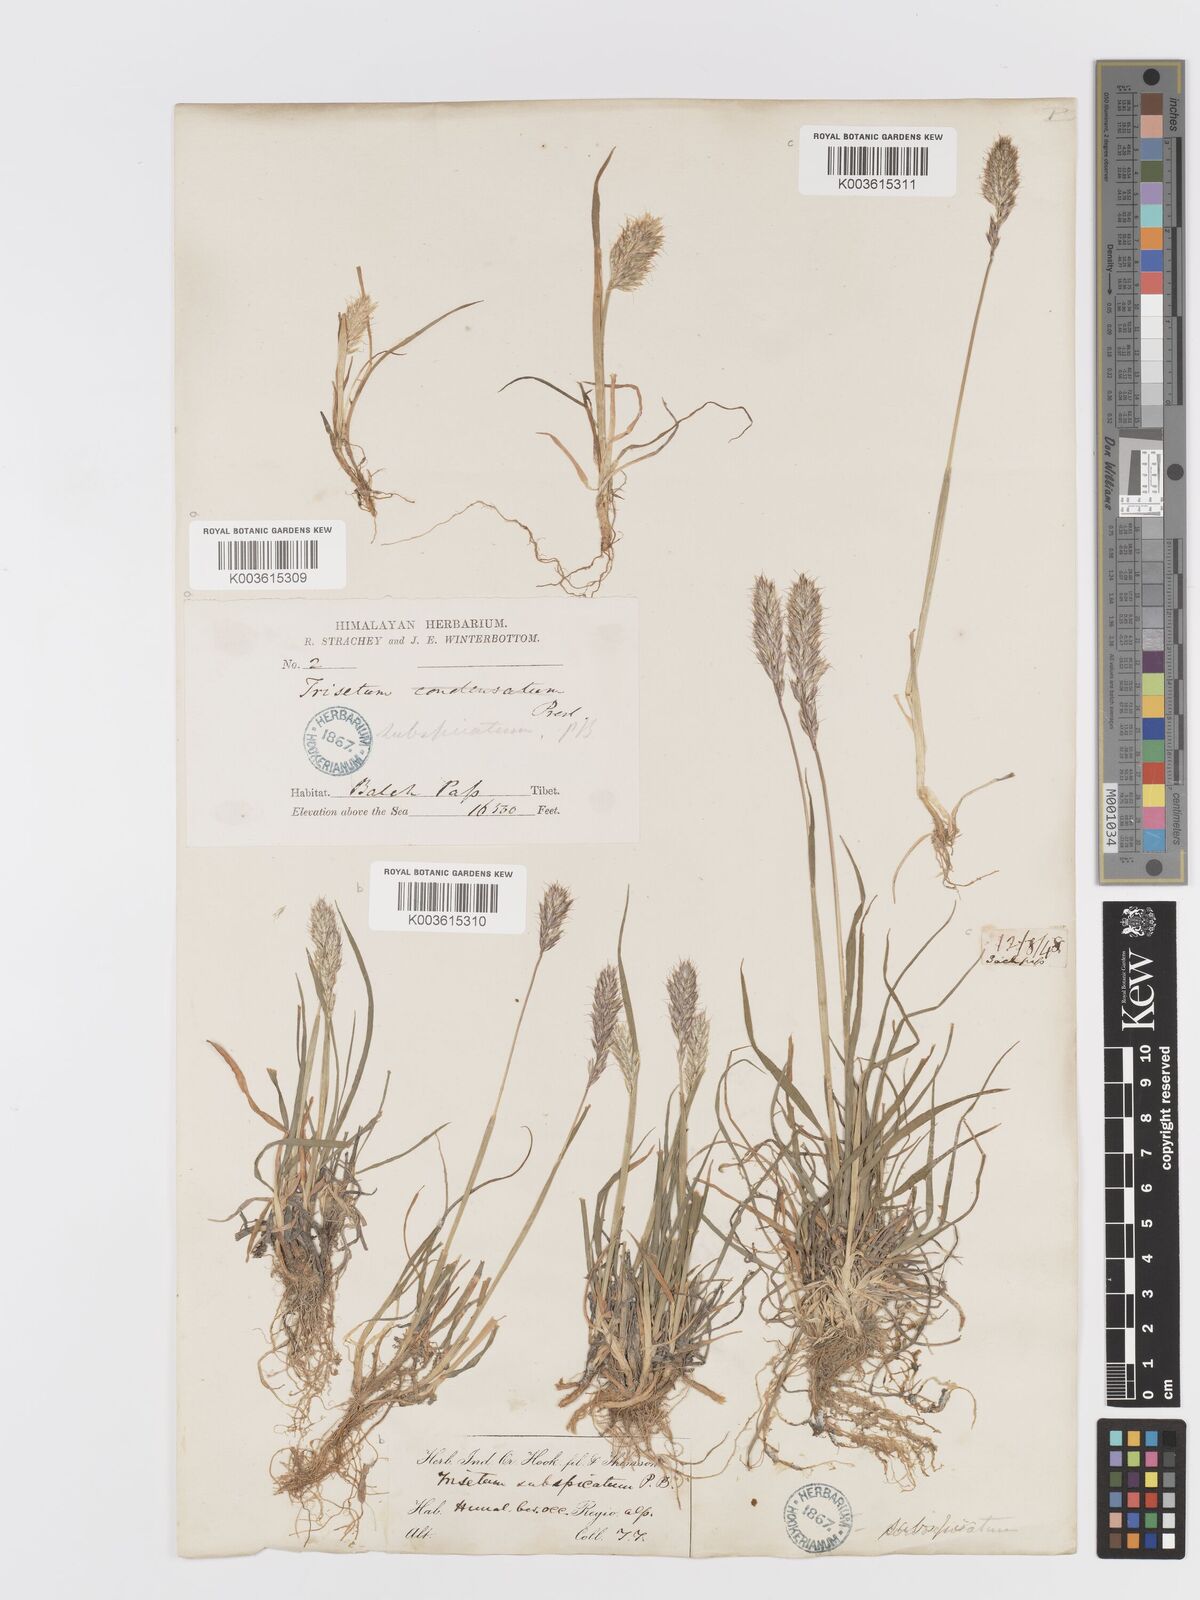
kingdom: Plantae
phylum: Tracheophyta
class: Liliopsida
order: Poales
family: Poaceae
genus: Koeleria
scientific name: Koeleria spicata
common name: Mountain trisetum
